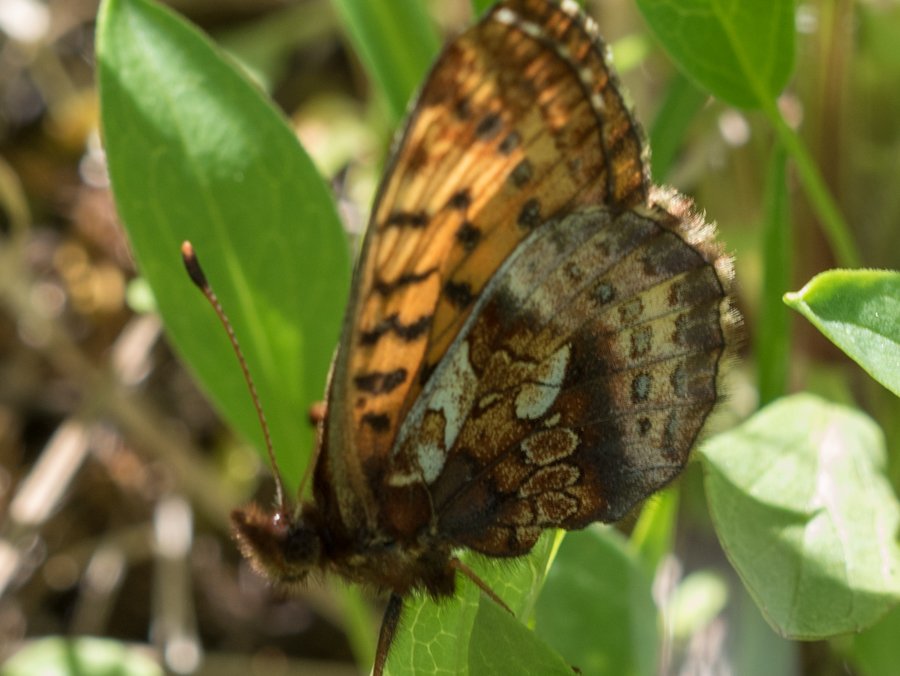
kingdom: Animalia
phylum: Arthropoda
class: Insecta
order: Lepidoptera
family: Nymphalidae
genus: Boloria
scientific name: Boloria frigga
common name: Frigga Fritillary
